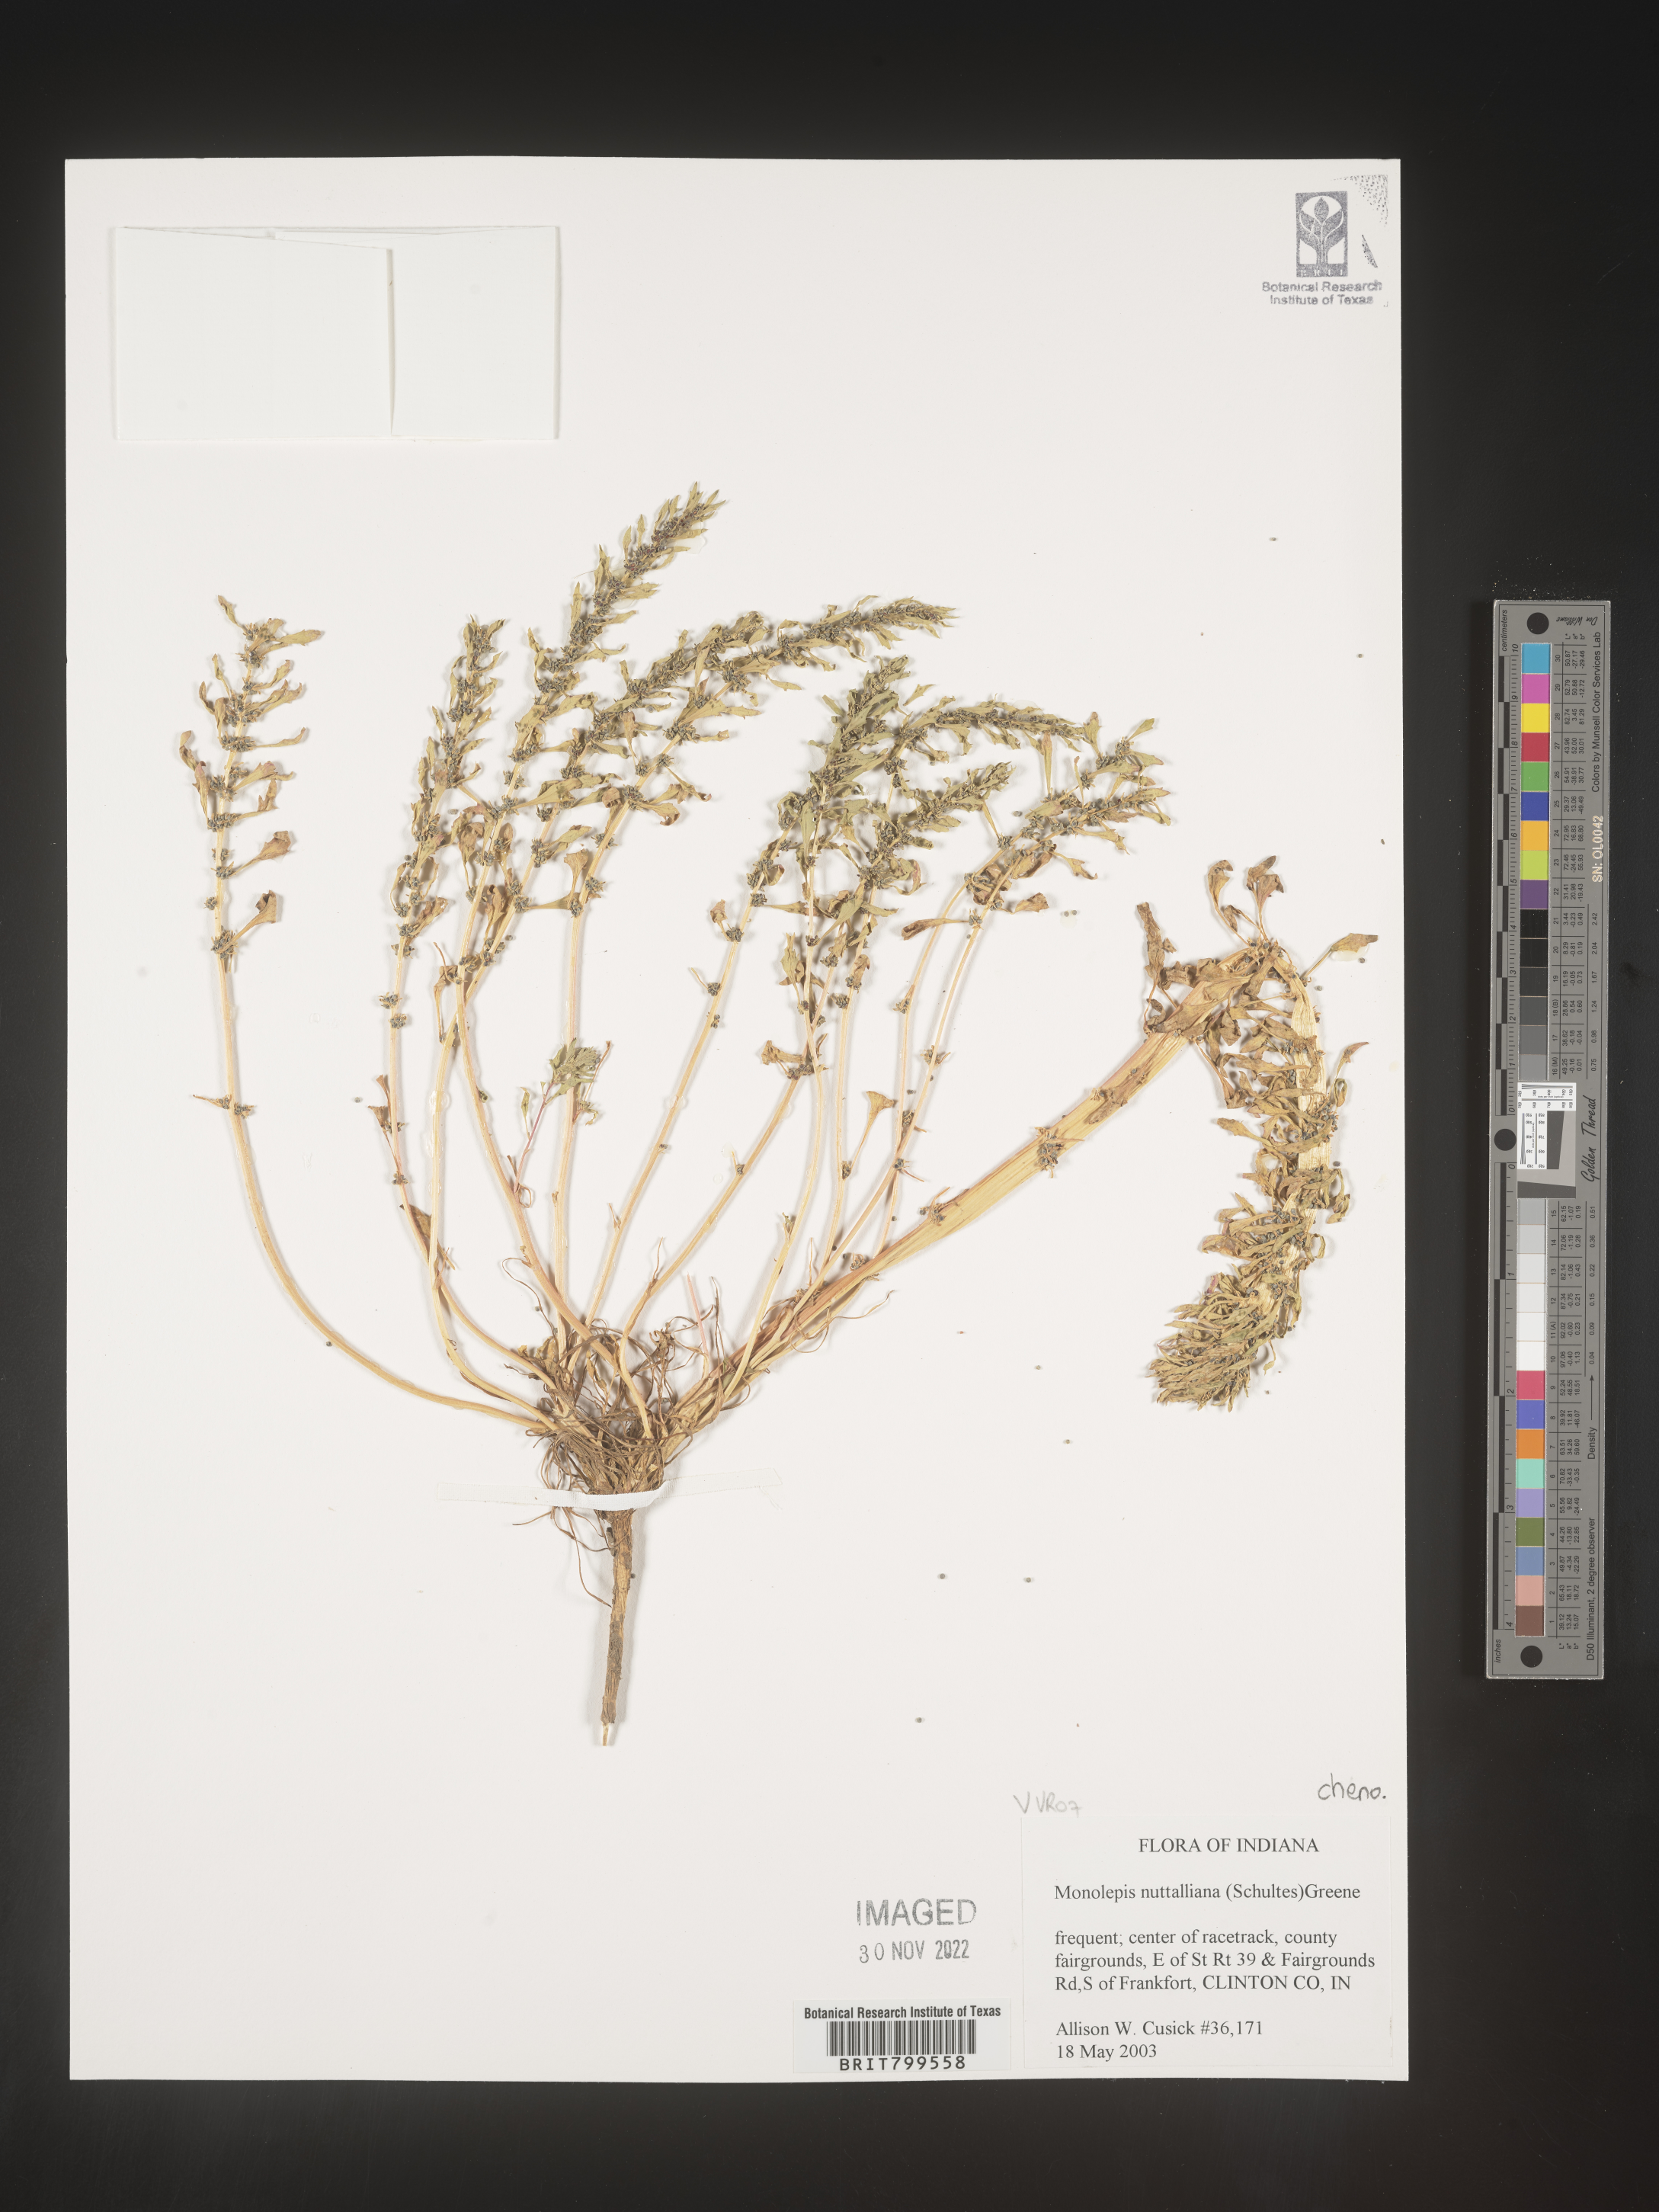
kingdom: Plantae
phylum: Tracheophyta
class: Magnoliopsida
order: Caryophyllales
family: Amaranthaceae
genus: Blitum
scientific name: Blitum
